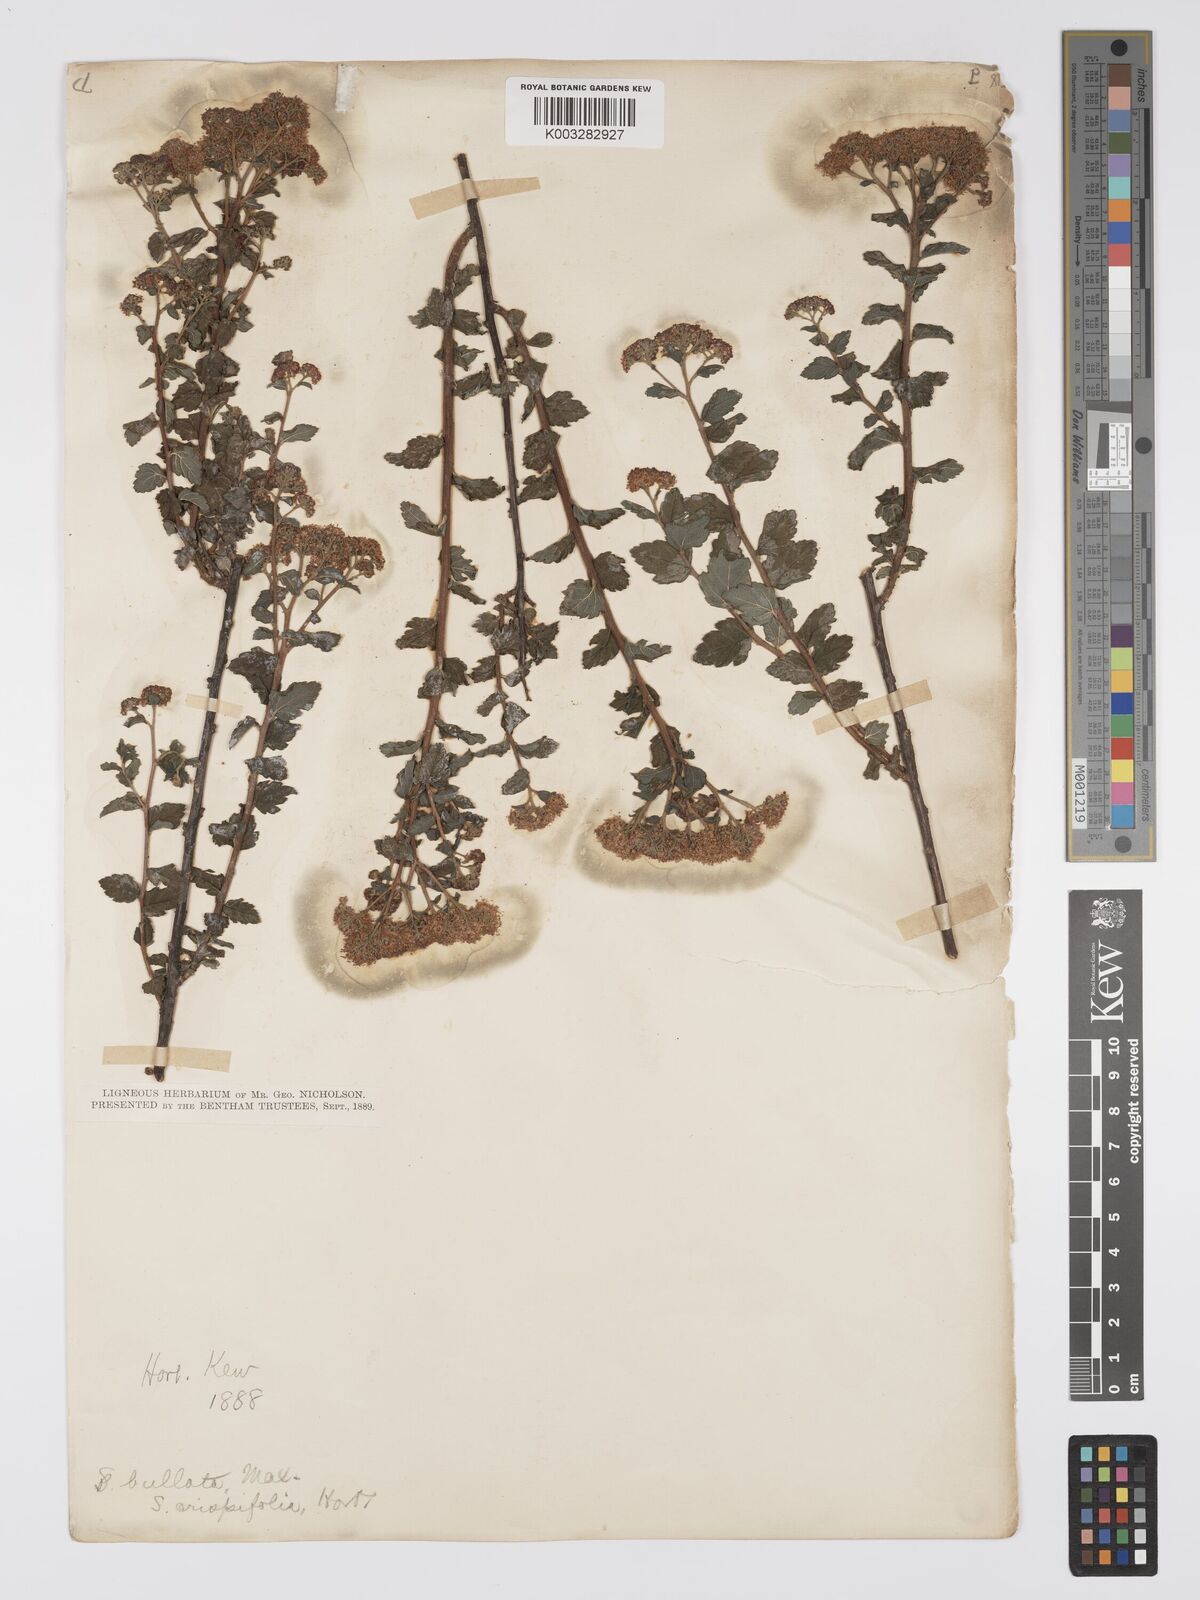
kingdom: Plantae
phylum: Tracheophyta
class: Magnoliopsida
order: Rosales
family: Rosaceae
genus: Spiraea
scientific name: Spiraea japonica
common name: Japanese spiraea
